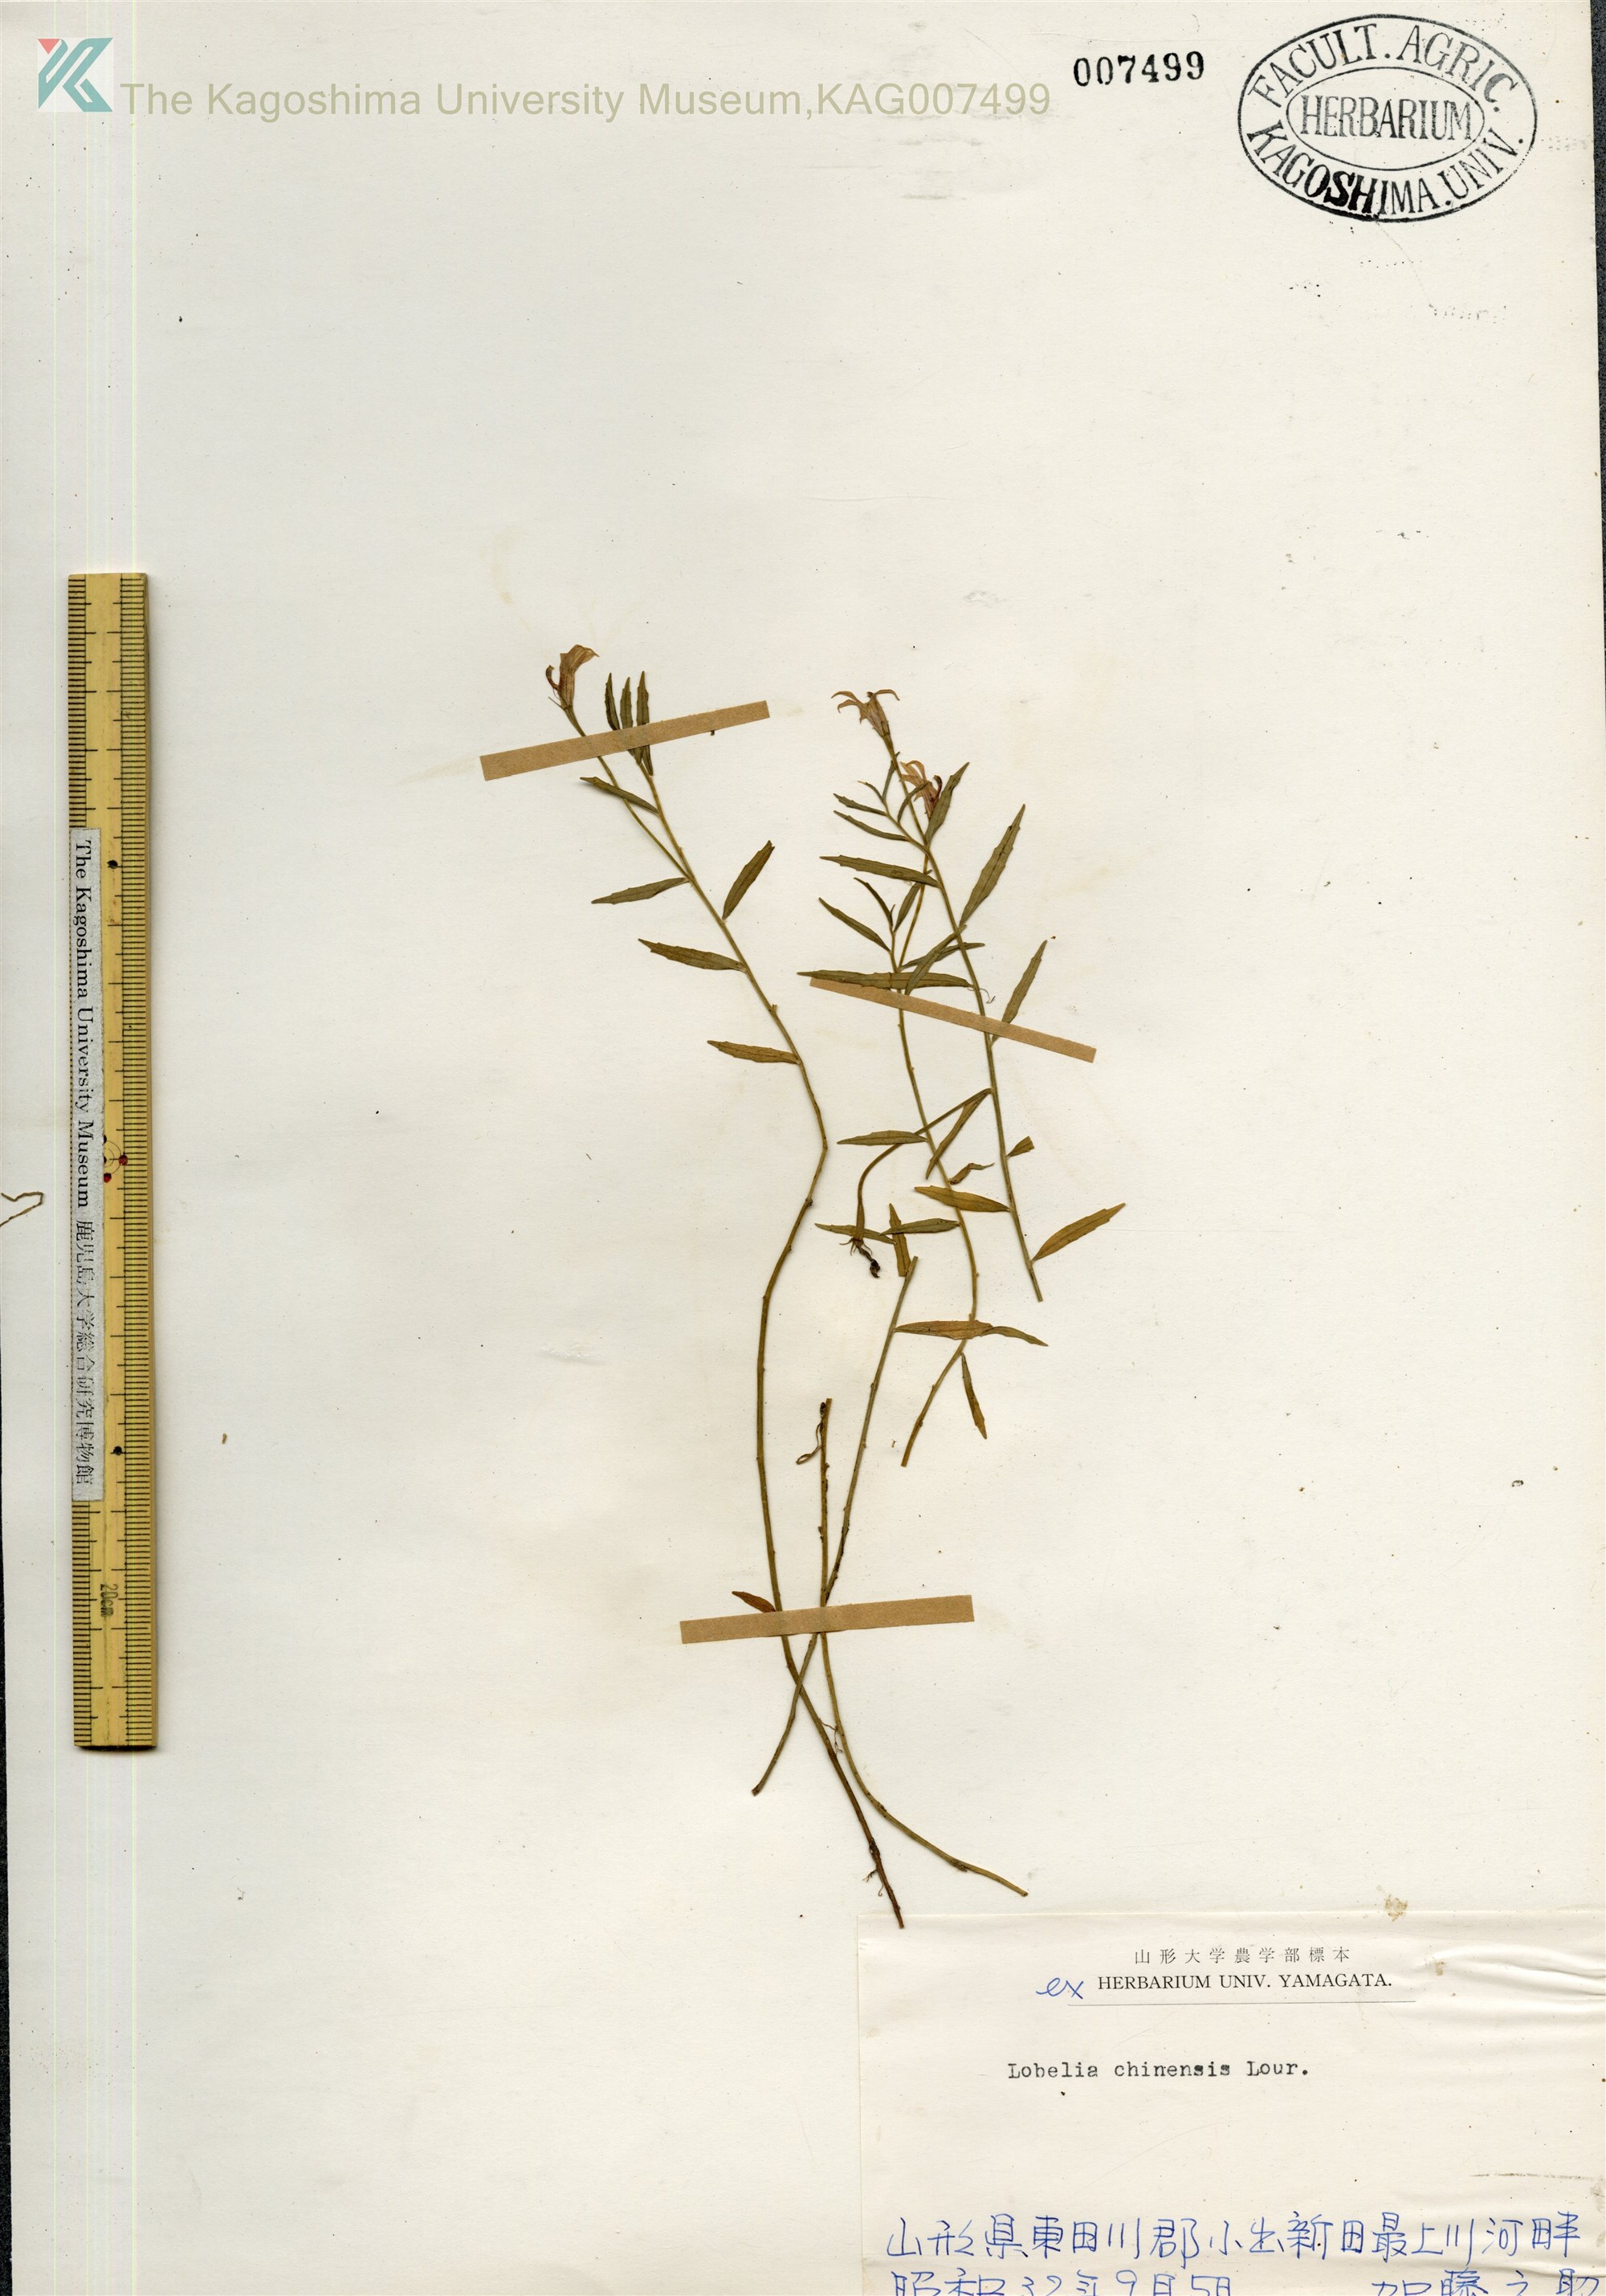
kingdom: Plantae
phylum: Tracheophyta
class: Magnoliopsida
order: Asterales
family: Campanulaceae
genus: Lobelia
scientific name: Lobelia chinensis
